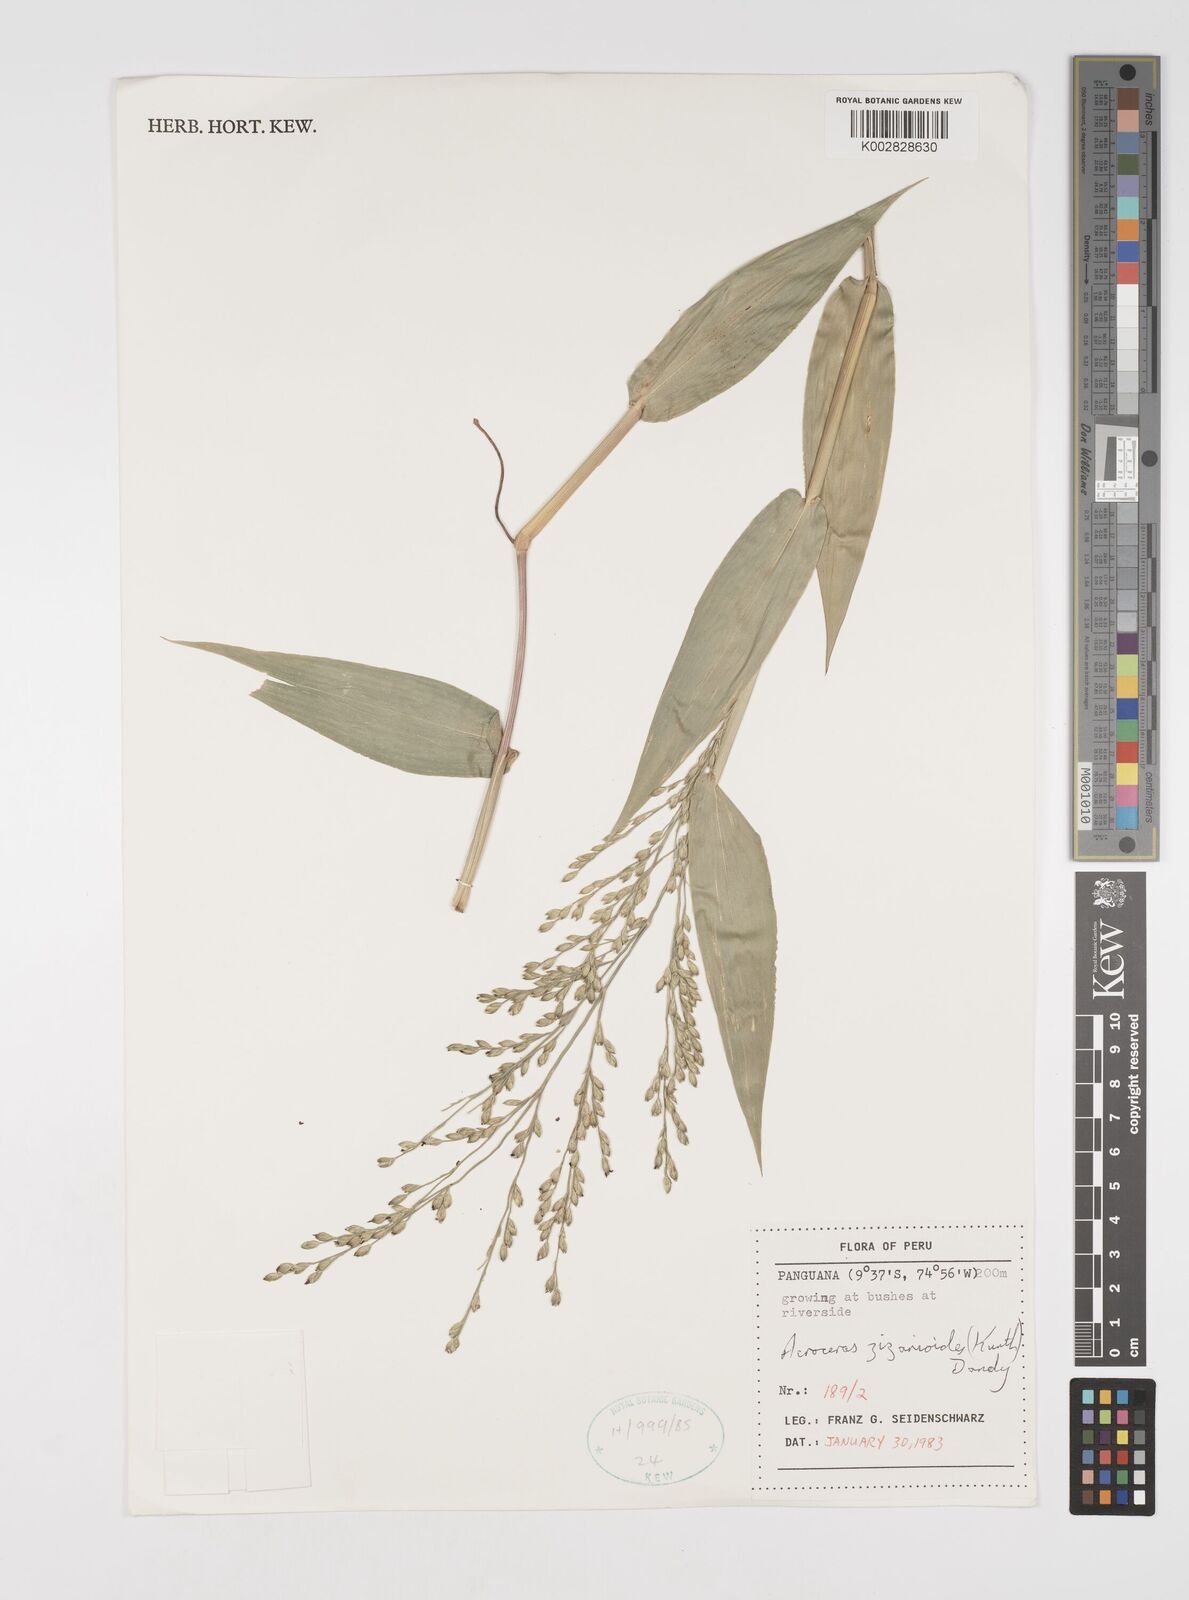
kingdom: Plantae
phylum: Tracheophyta
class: Liliopsida
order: Poales
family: Poaceae
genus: Acroceras
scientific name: Acroceras zizanioides
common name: Oat grass
